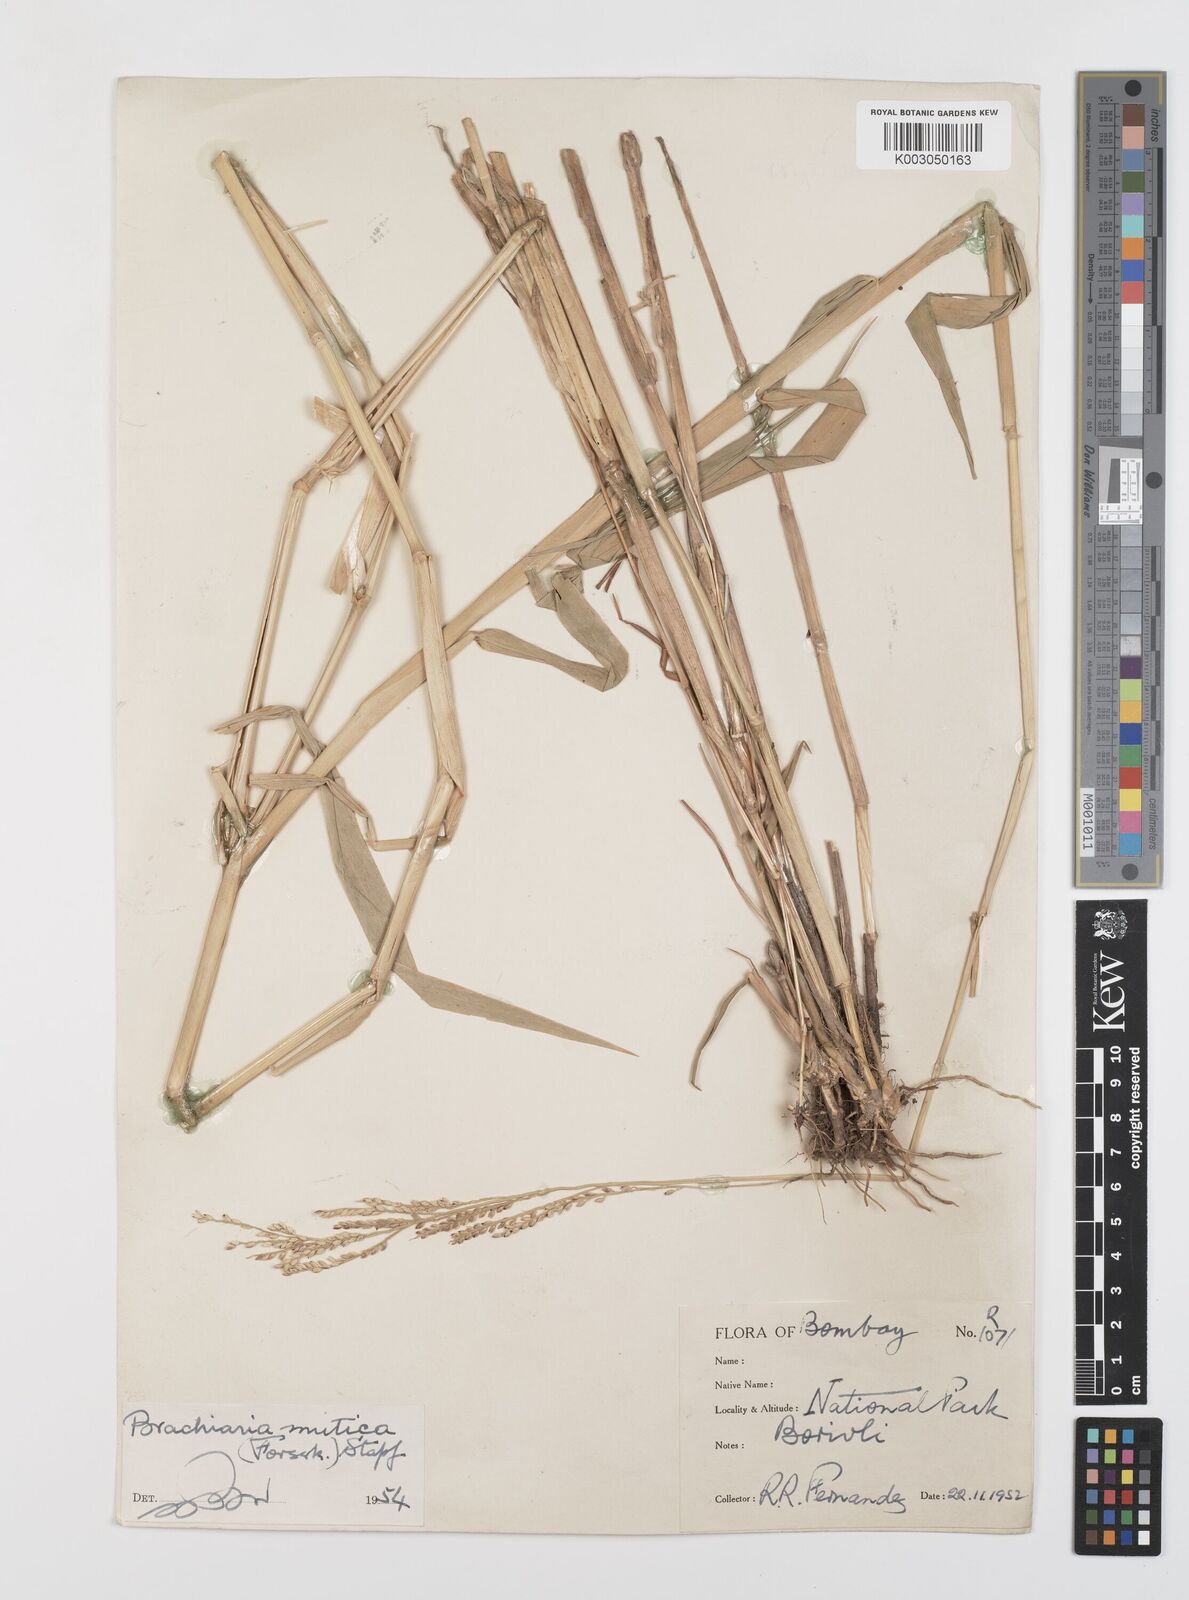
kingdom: Plantae
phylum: Tracheophyta
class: Liliopsida
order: Poales
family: Poaceae
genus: Urochloa
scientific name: Urochloa mutica
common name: Para grass
